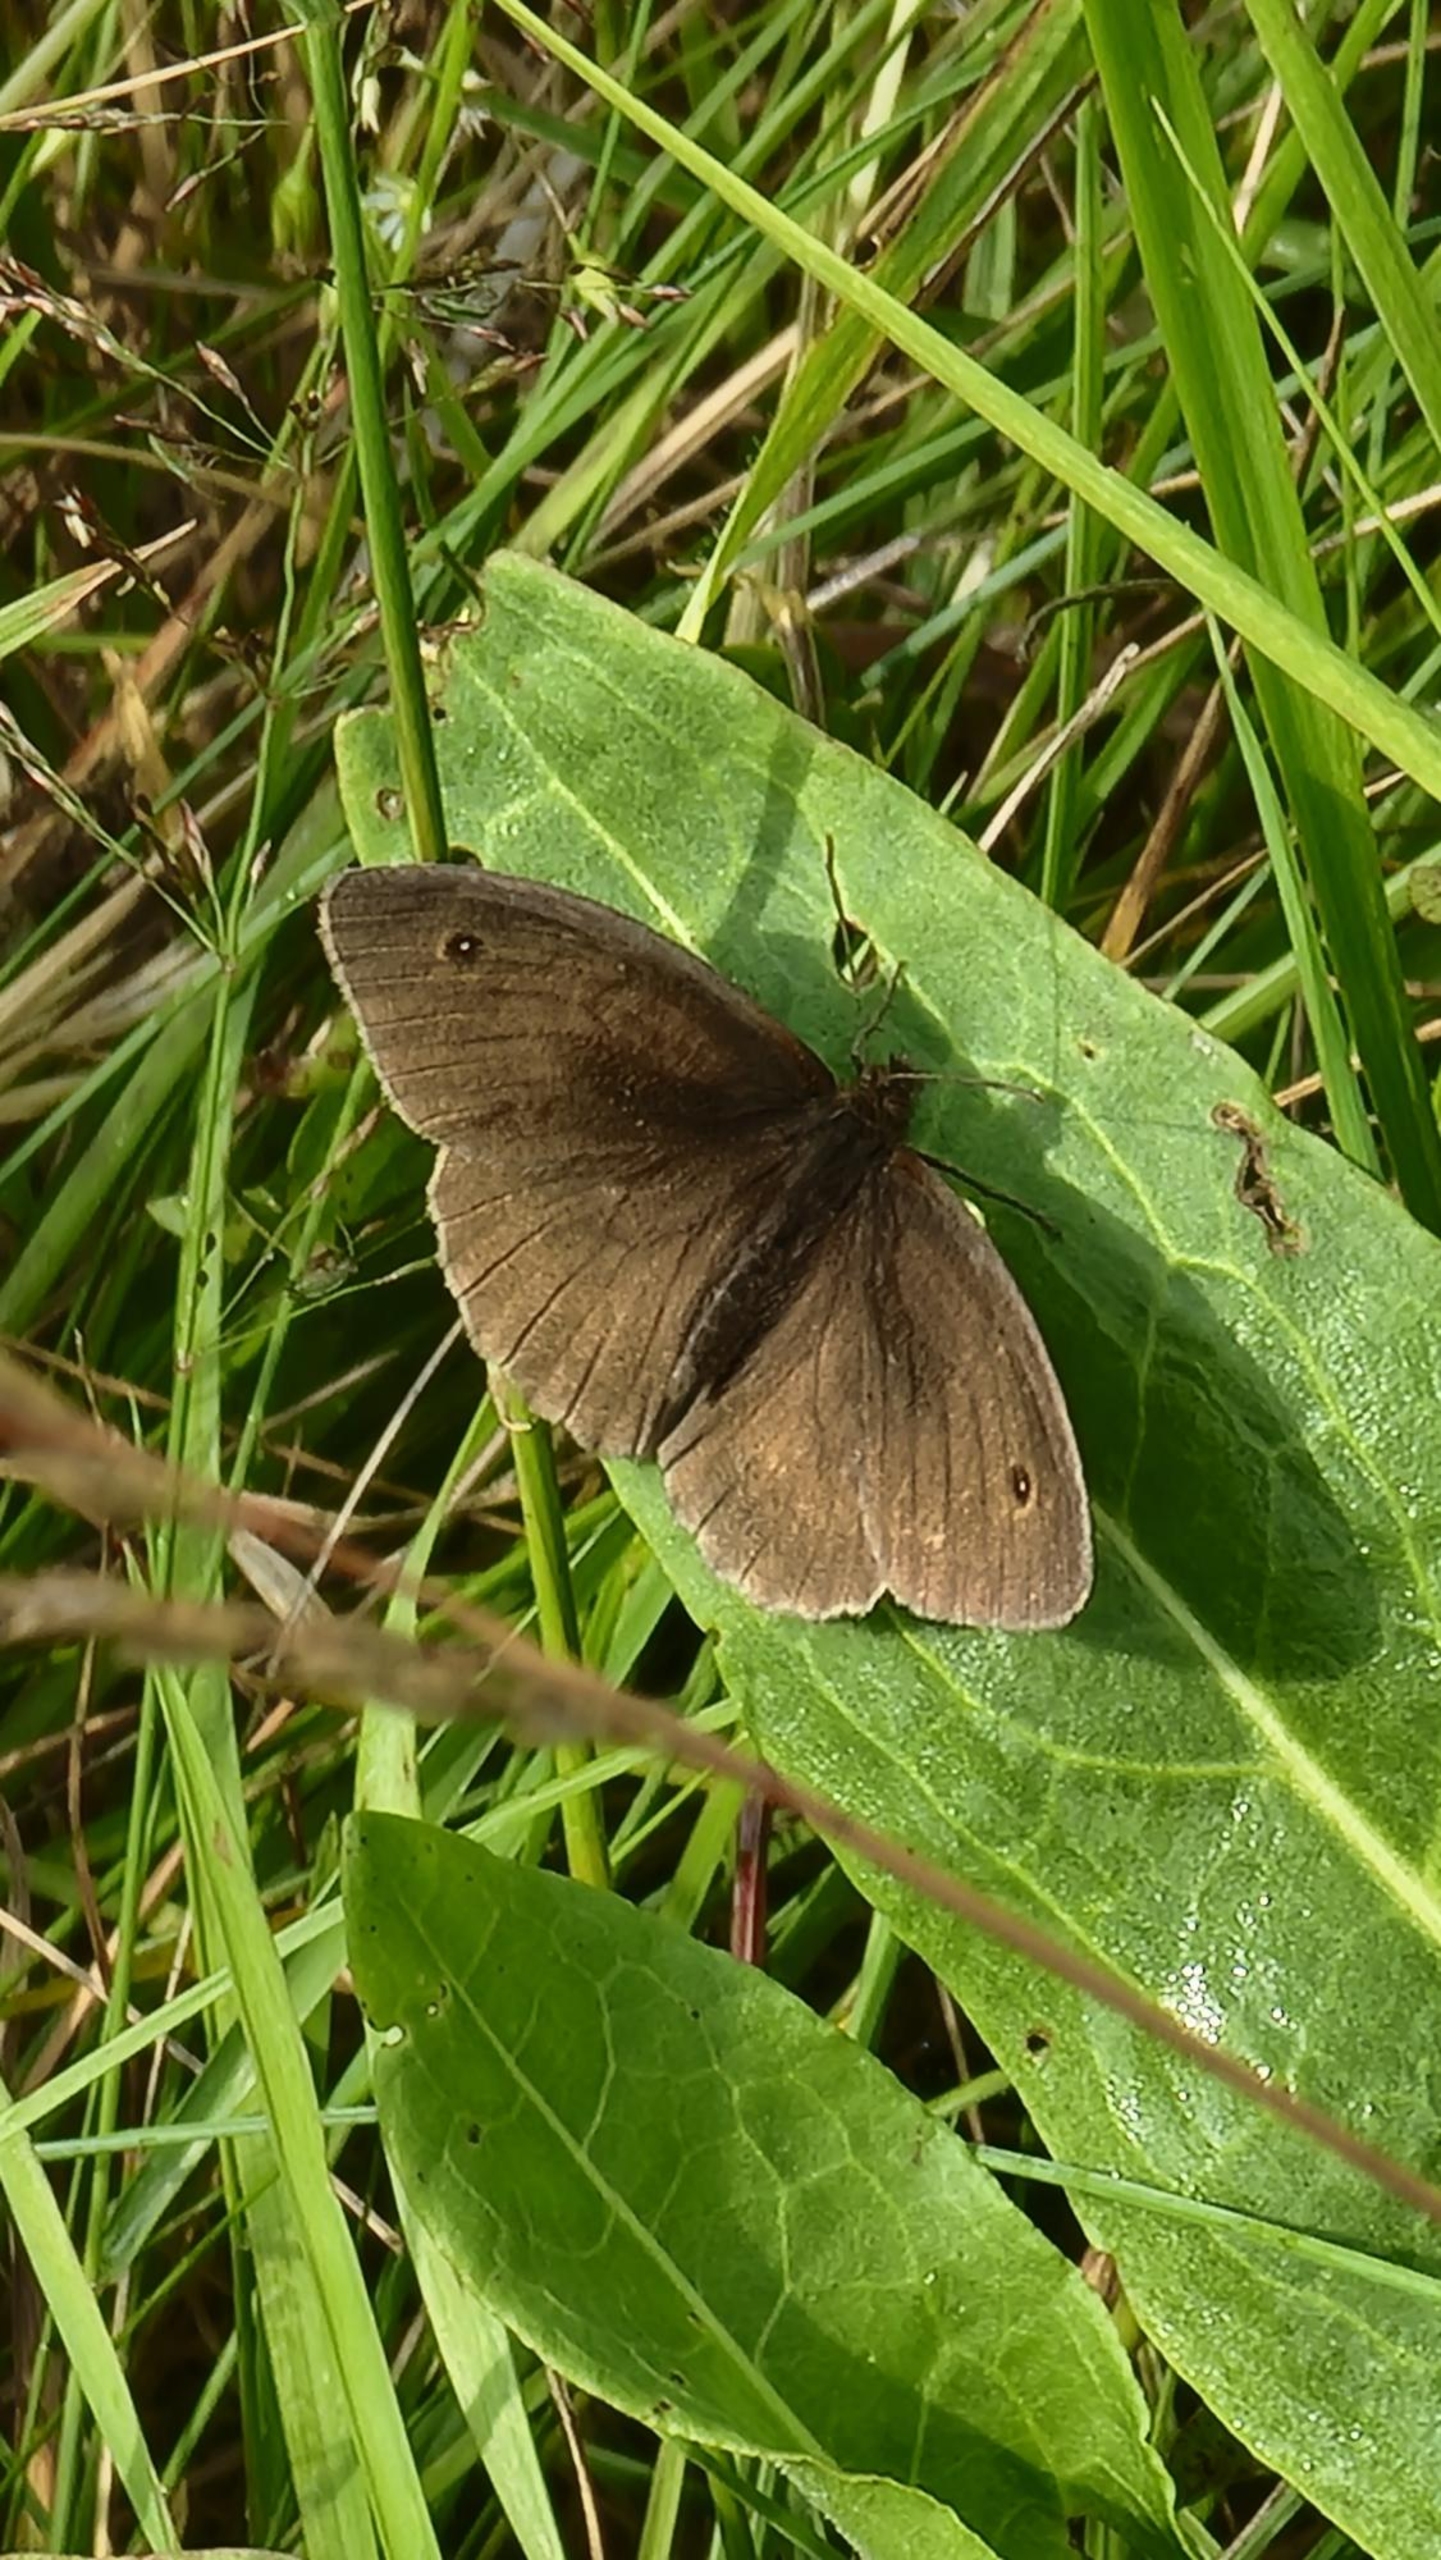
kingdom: Animalia
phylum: Arthropoda
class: Insecta
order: Lepidoptera
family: Nymphalidae
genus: Maniola
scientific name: Maniola jurtina
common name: Græsrandøje
